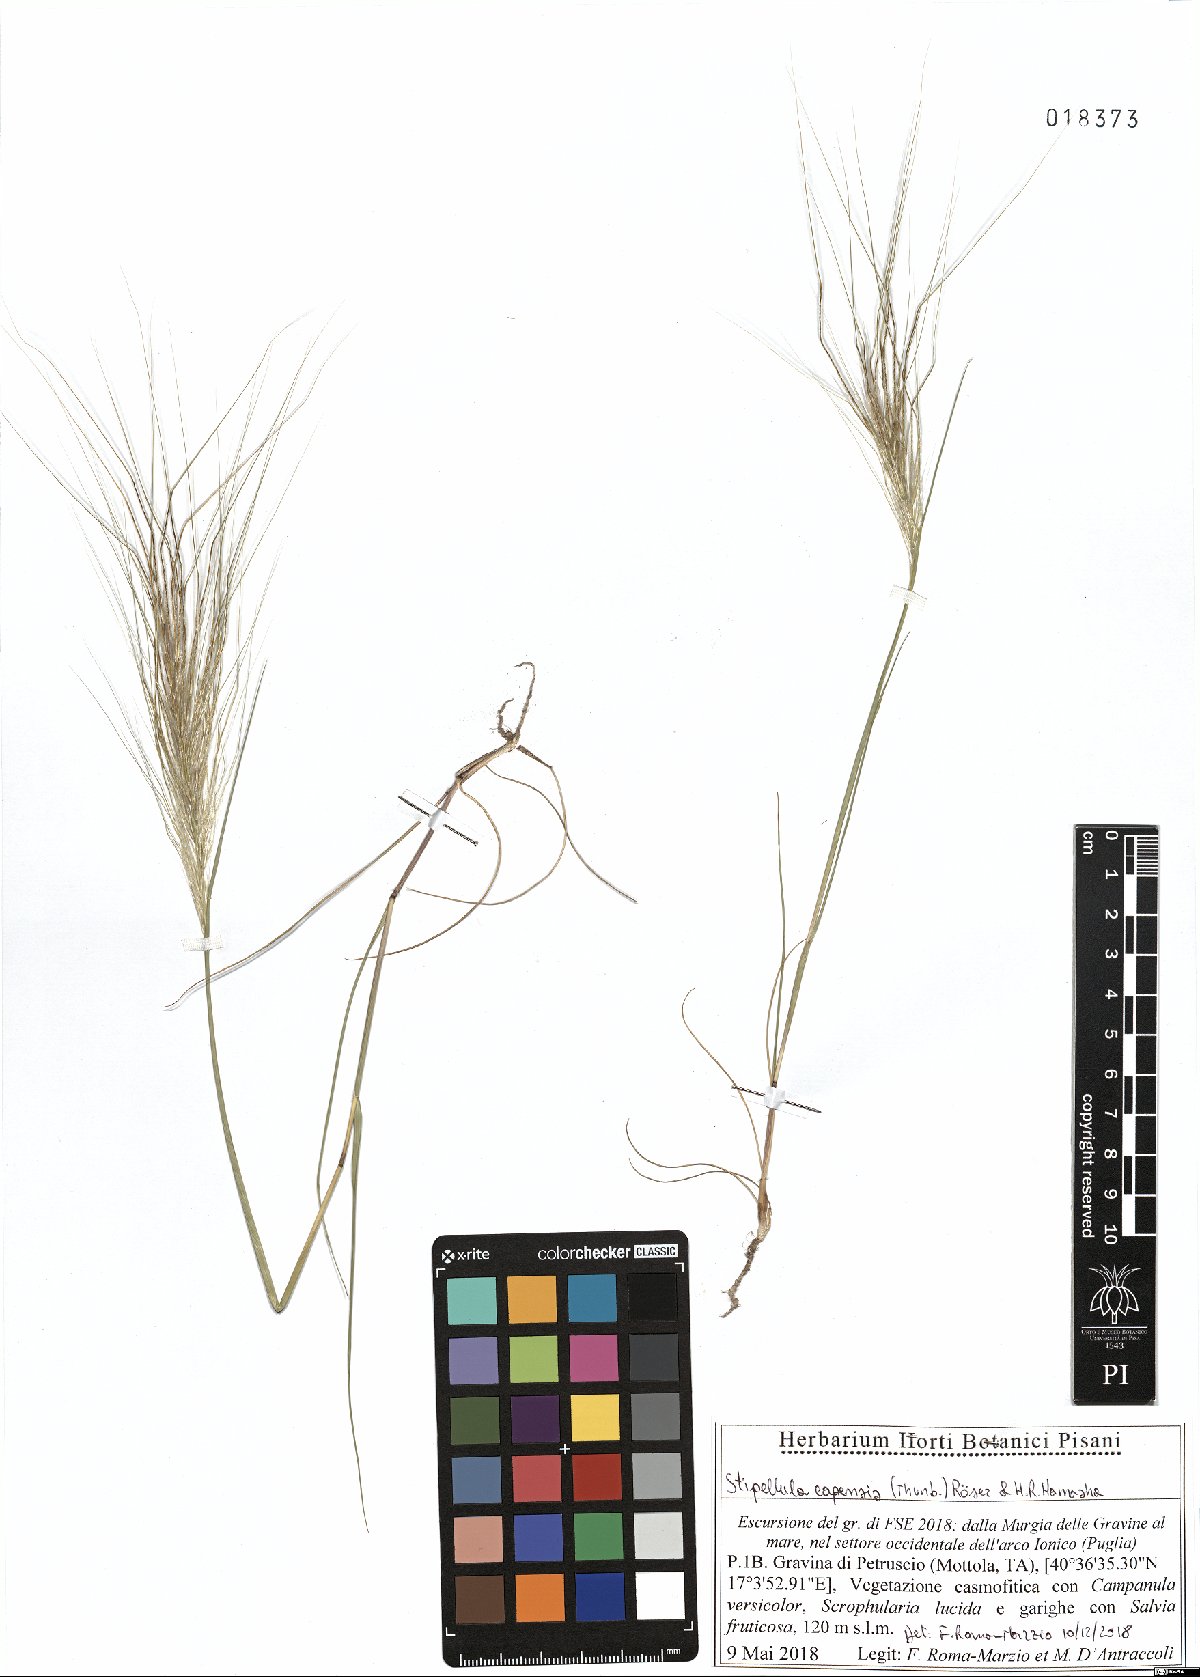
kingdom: Plantae
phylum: Tracheophyta
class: Liliopsida
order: Poales
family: Poaceae
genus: Stipellula
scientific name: Stipellula capensis
